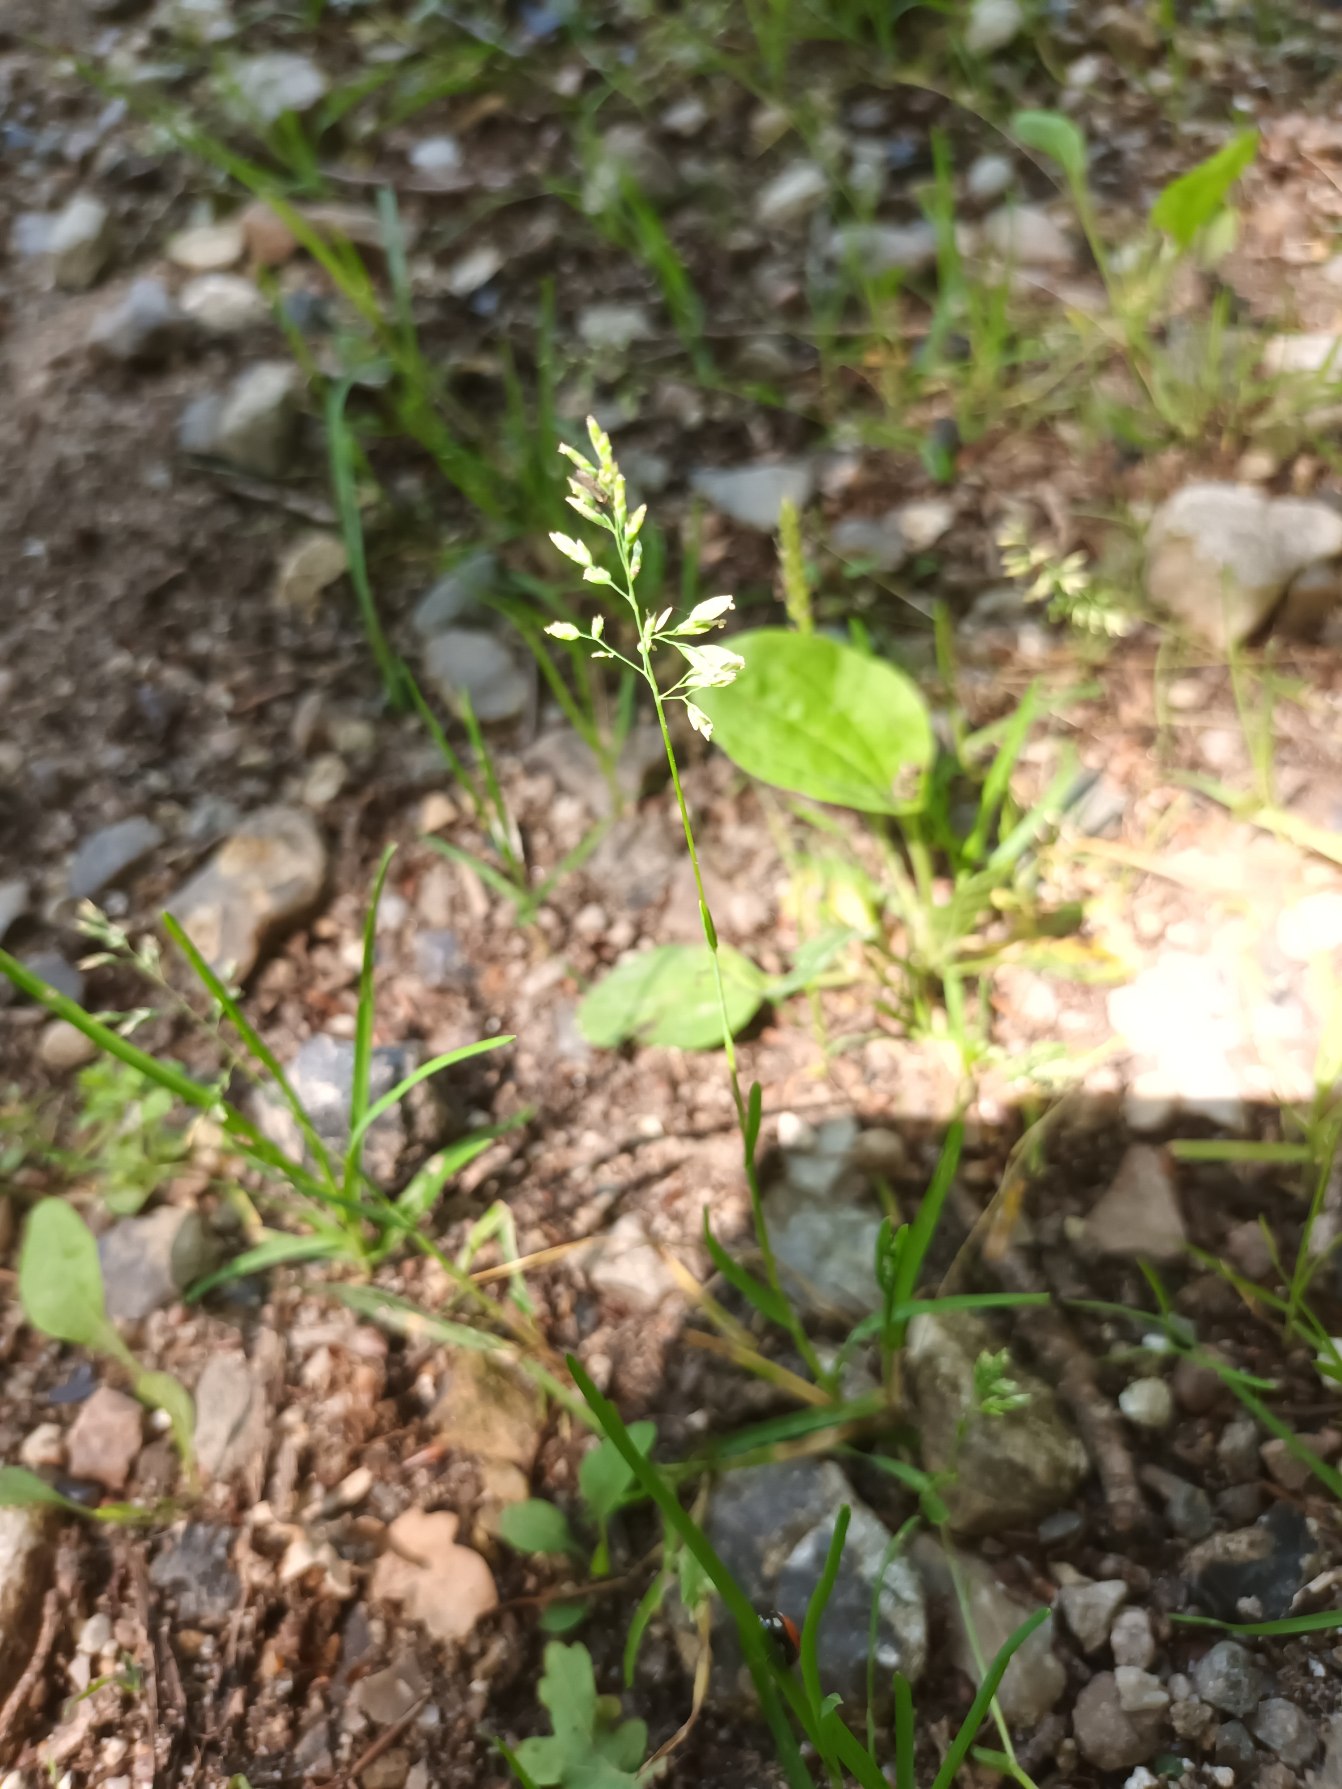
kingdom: Plantae
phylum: Tracheophyta
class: Liliopsida
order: Poales
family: Poaceae
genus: Poa
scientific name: Poa annua
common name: Enårig rapgræs
